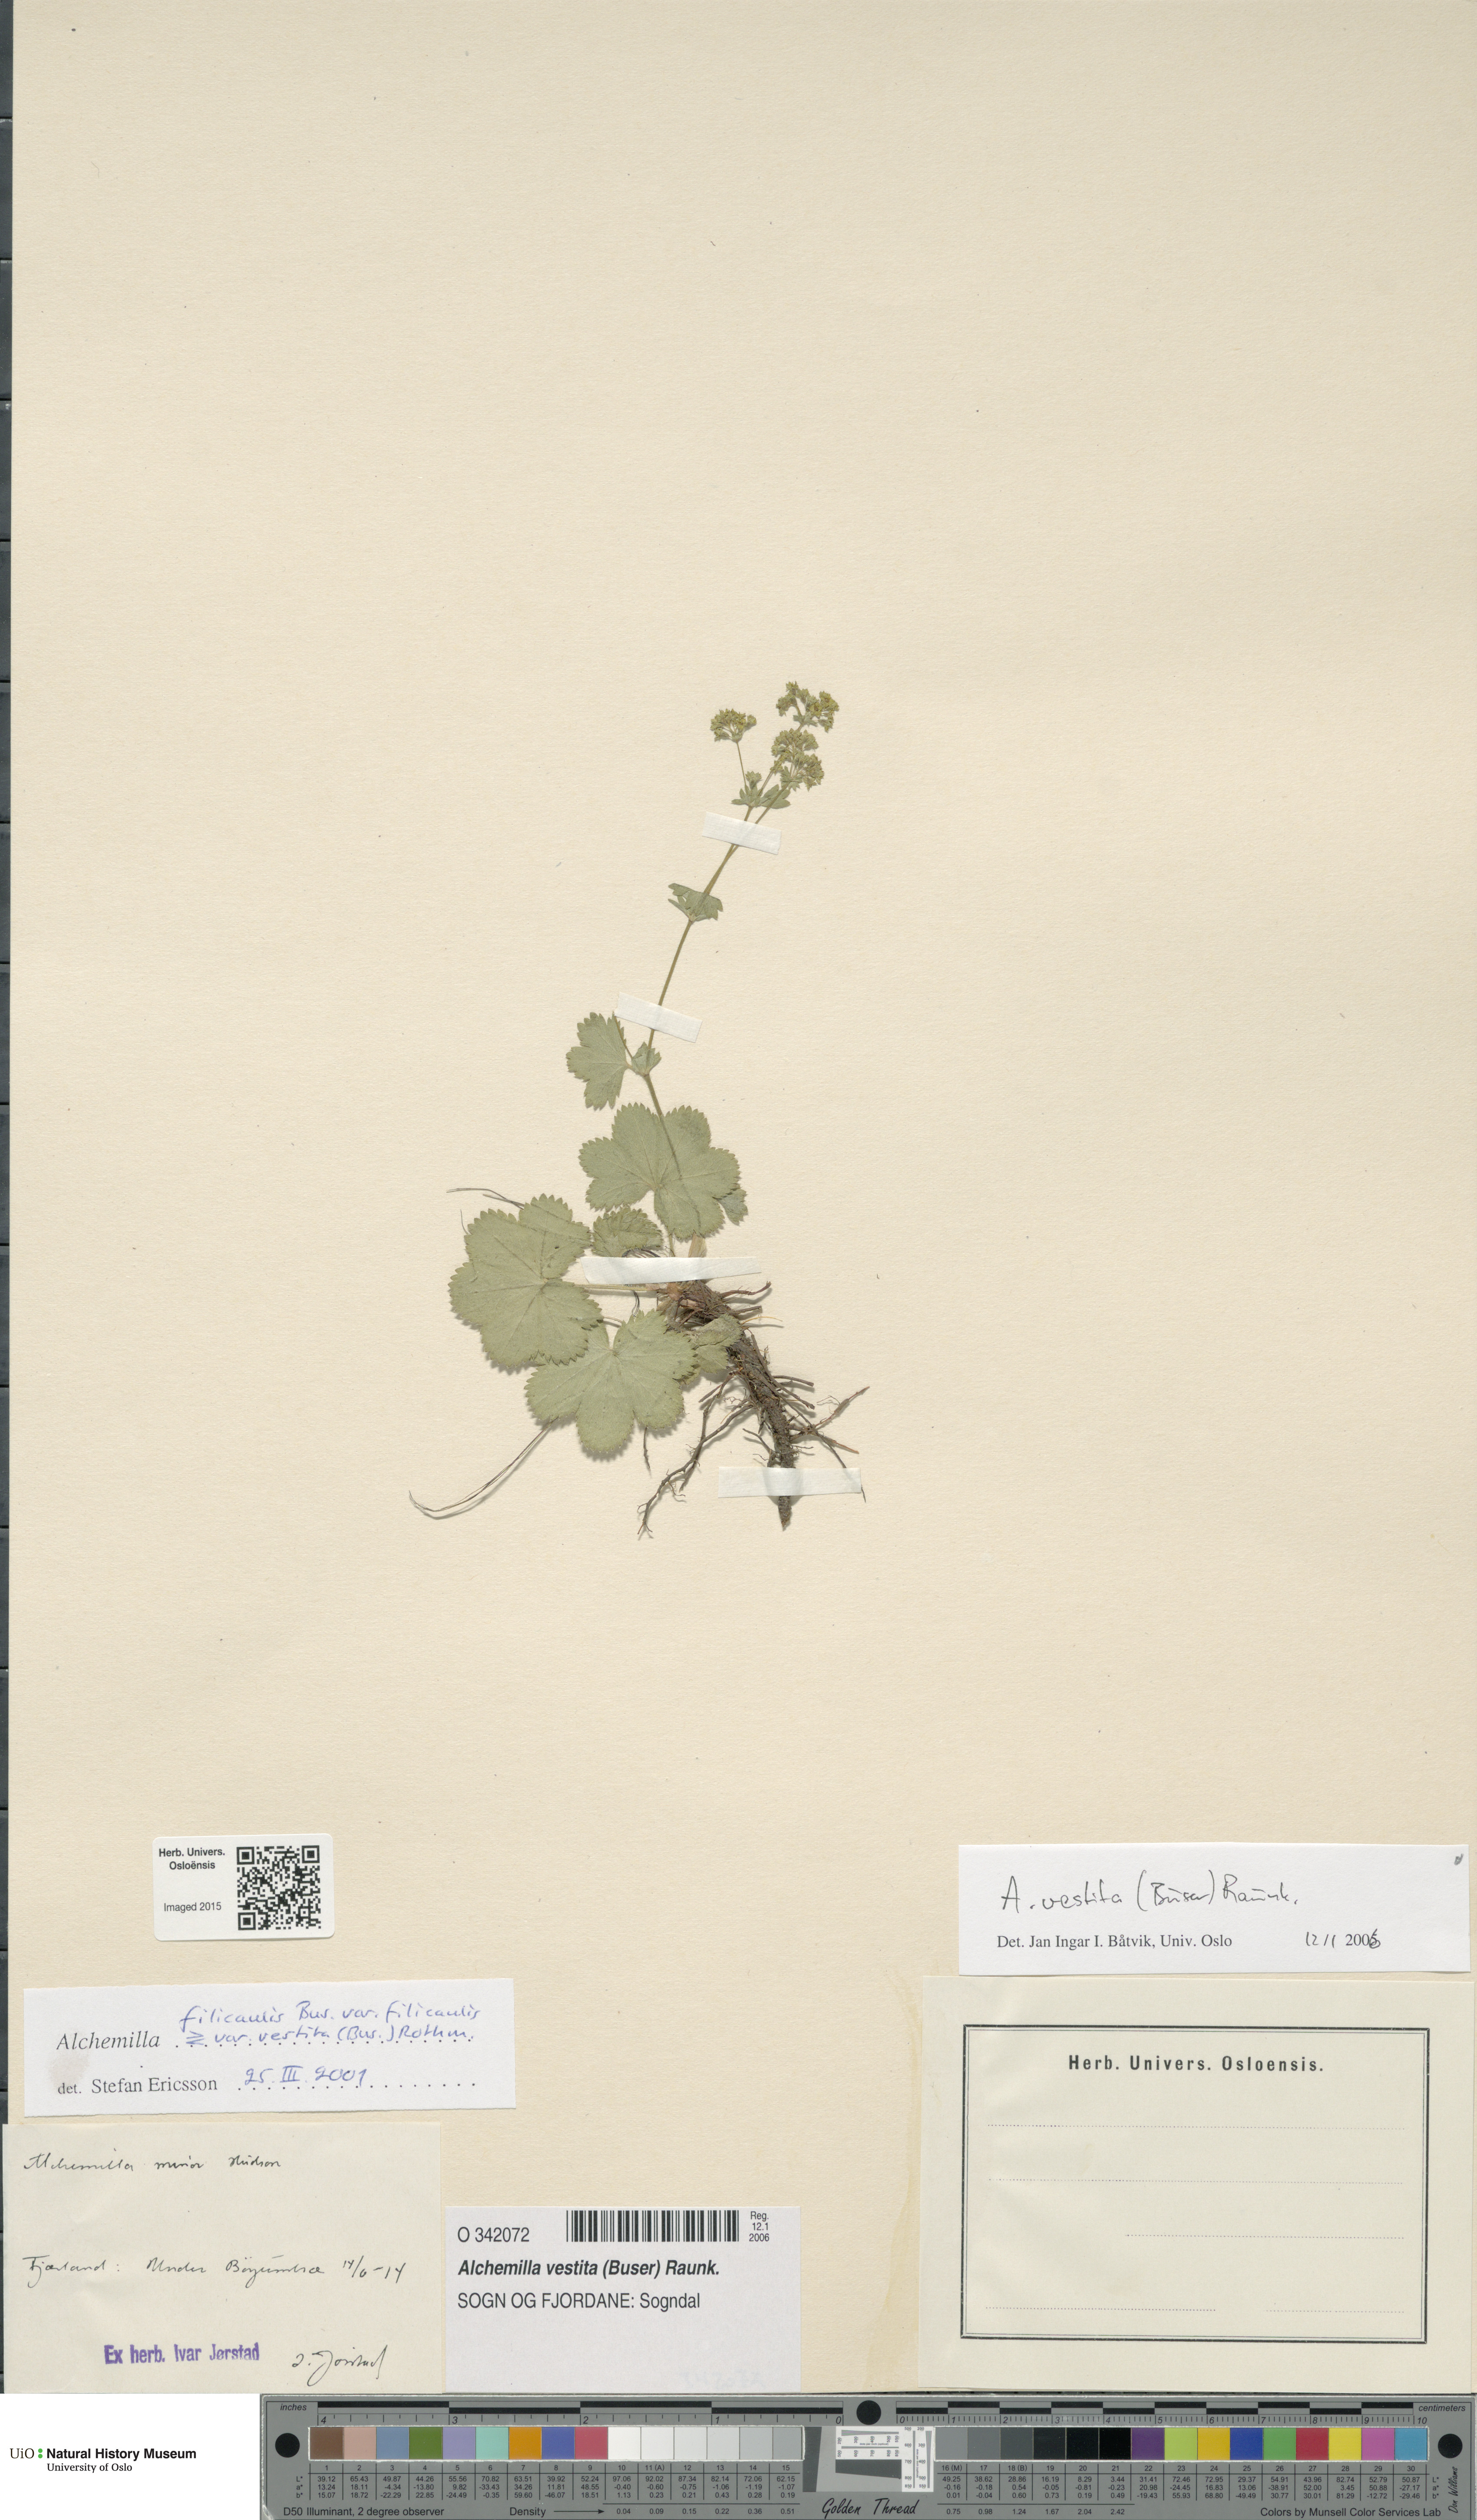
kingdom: Plantae
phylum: Tracheophyta
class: Magnoliopsida
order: Rosales
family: Rosaceae
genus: Alchemilla
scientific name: Alchemilla filicaulis
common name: Hairy lady's-mantle
